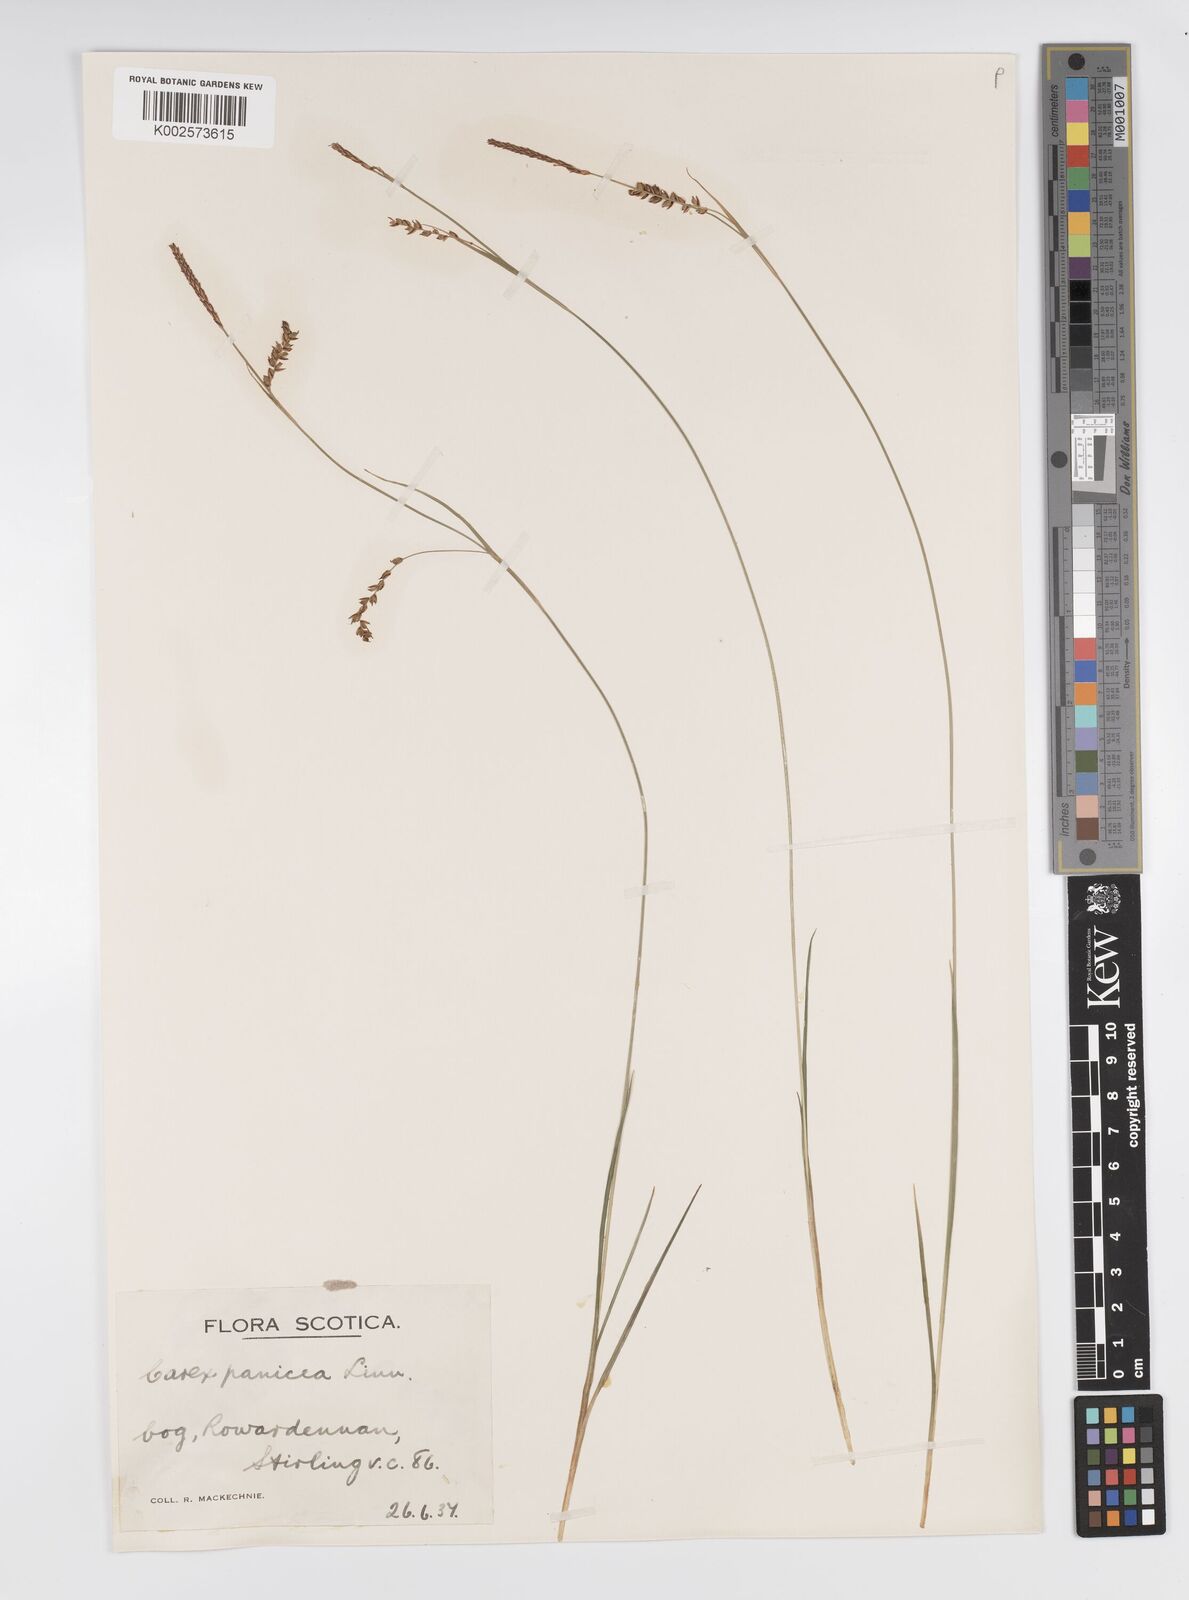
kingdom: Plantae
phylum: Tracheophyta
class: Liliopsida
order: Poales
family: Cyperaceae
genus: Carex
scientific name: Carex panicea
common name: Carnation sedge
